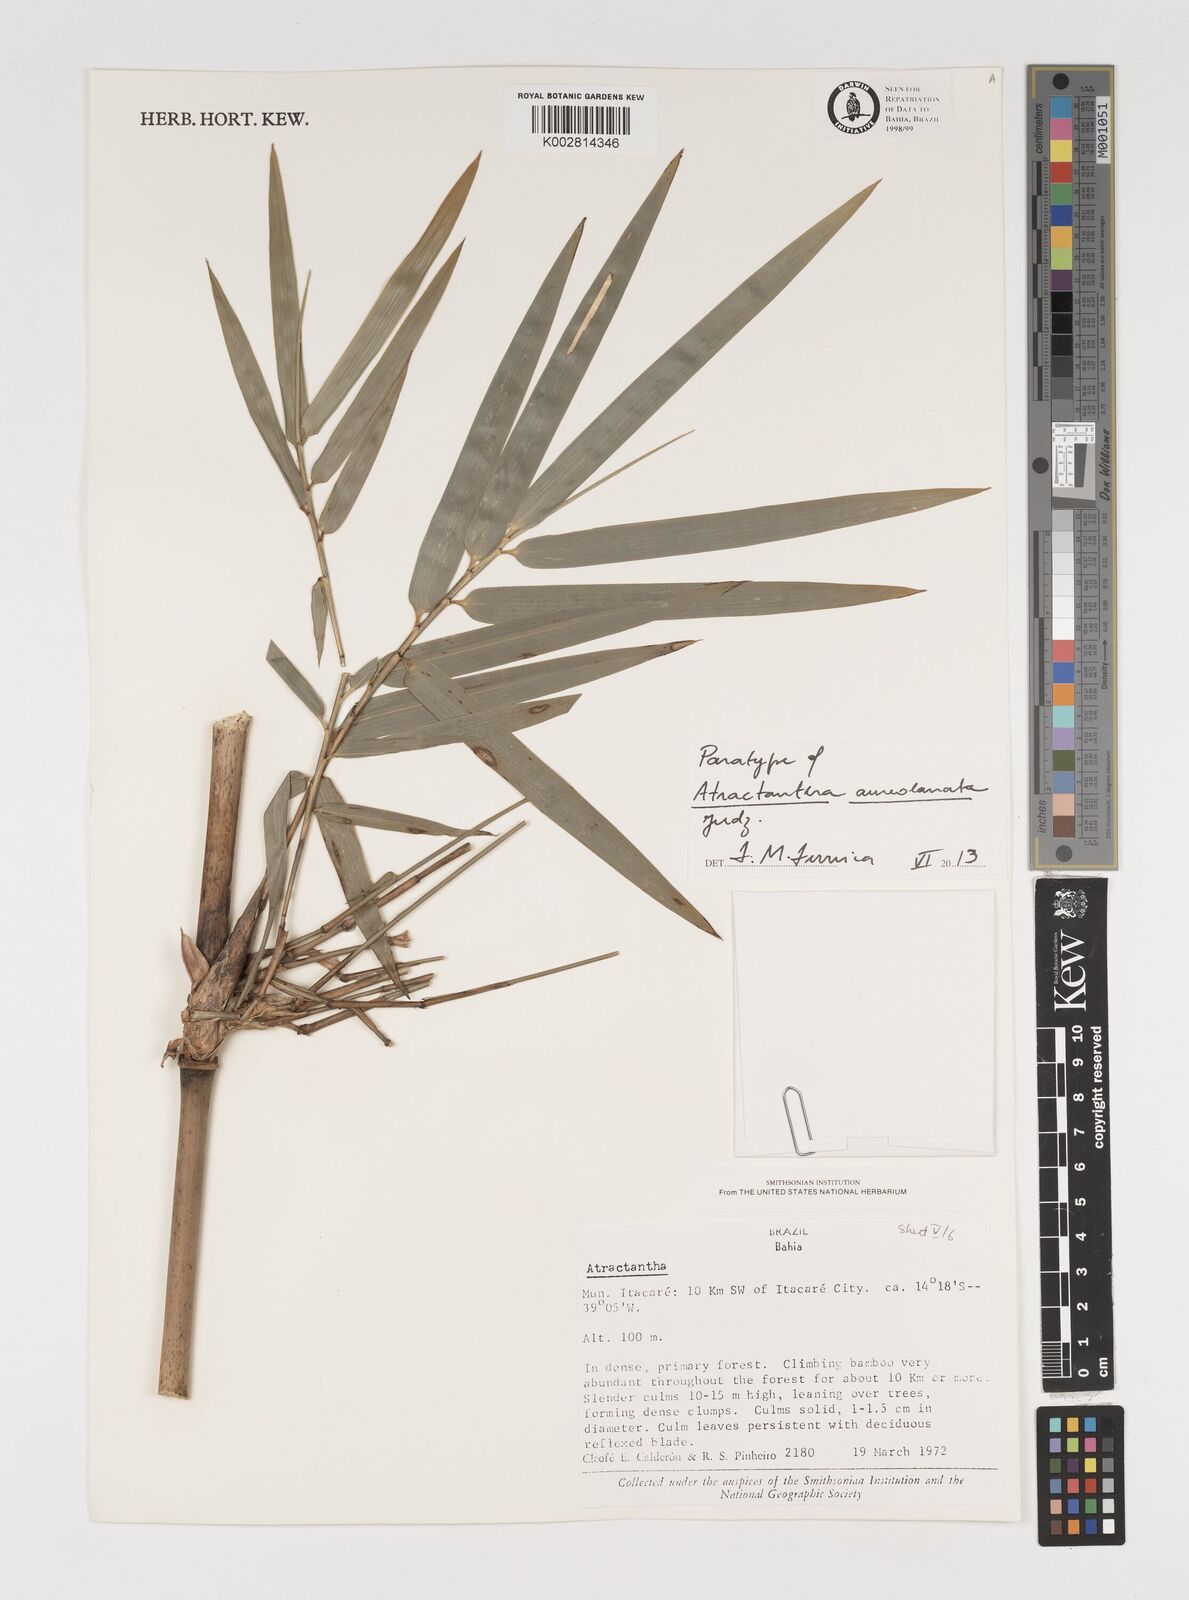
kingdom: Plantae
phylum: Tracheophyta
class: Liliopsida
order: Poales
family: Poaceae
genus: Atractantha
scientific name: Atractantha aureolanata
